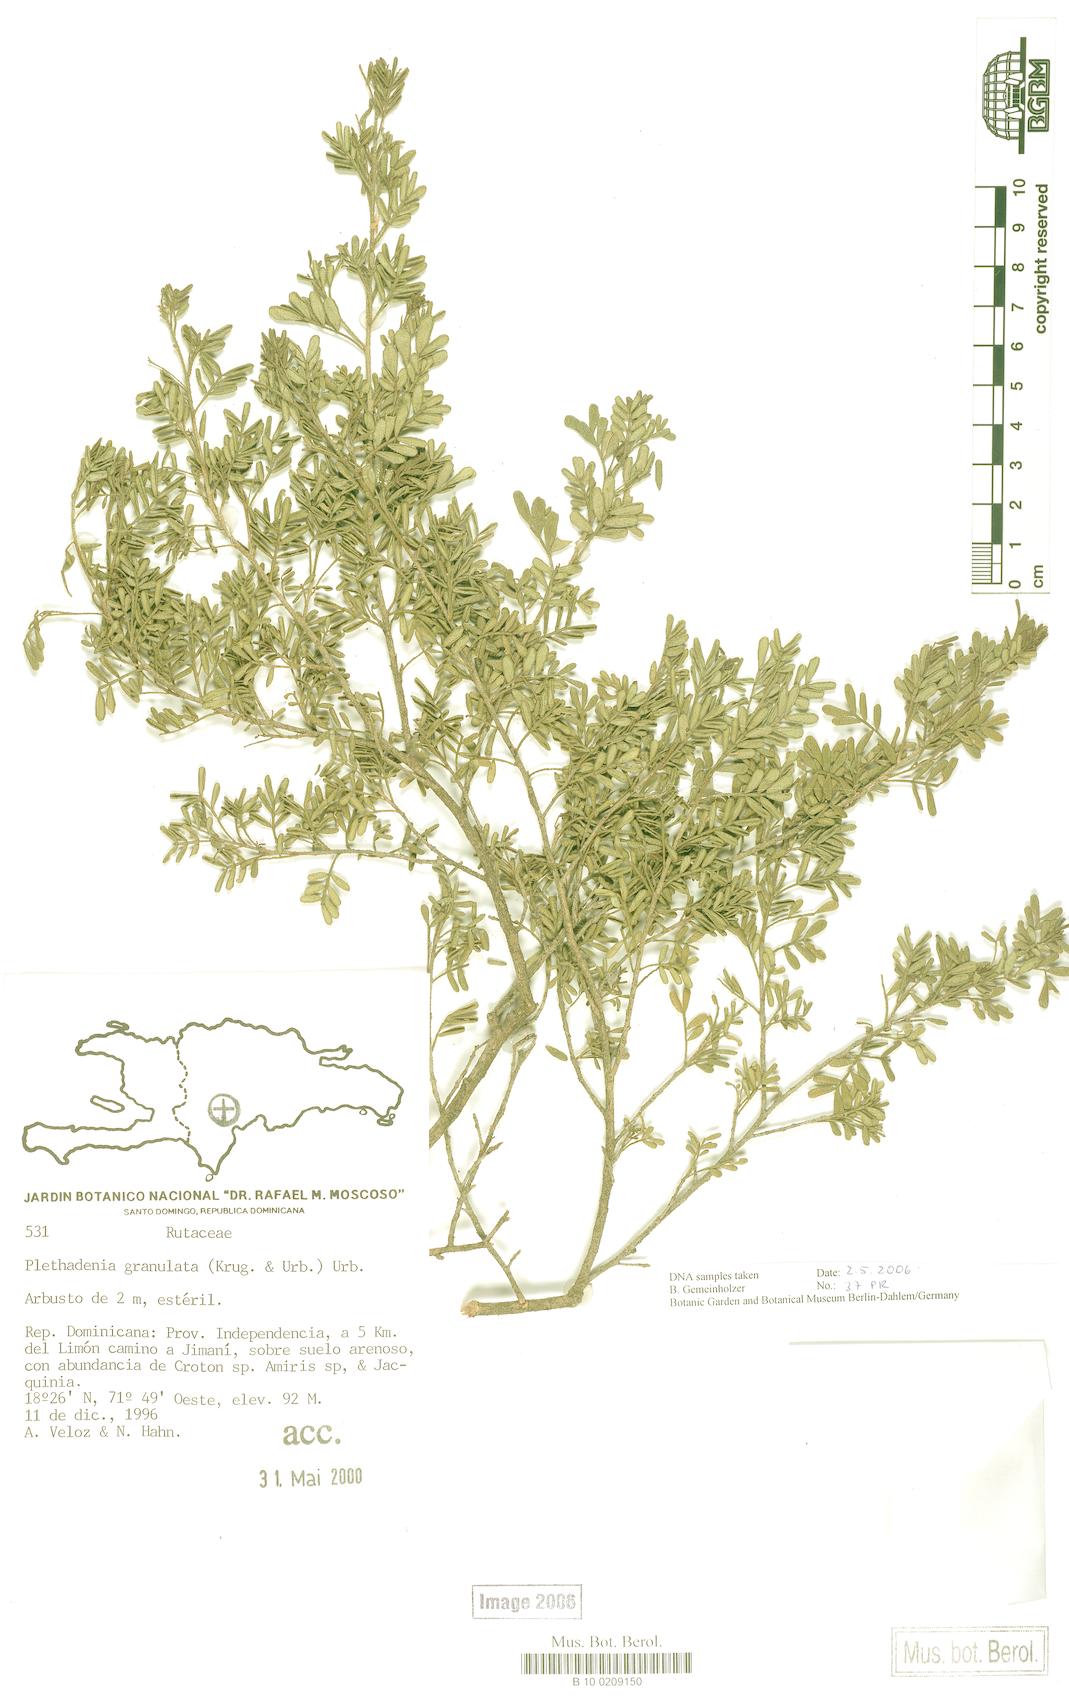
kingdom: Plantae
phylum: Tracheophyta
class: Magnoliopsida
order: Sapindales
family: Rutaceae
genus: Plethadenia
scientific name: Plethadenia granulata
